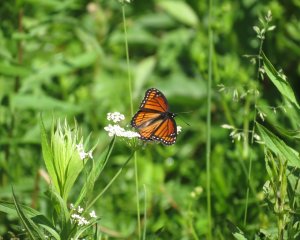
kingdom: Animalia
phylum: Arthropoda
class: Insecta
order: Lepidoptera
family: Nymphalidae
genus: Limenitis
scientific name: Limenitis archippus
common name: Viceroy
